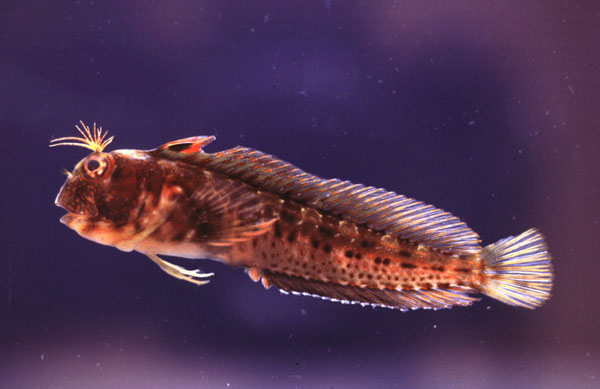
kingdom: Animalia
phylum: Chordata
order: Perciformes
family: Blenniidae
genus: Parablennius
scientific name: Parablennius pilicornis
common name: Ringneck blenny
